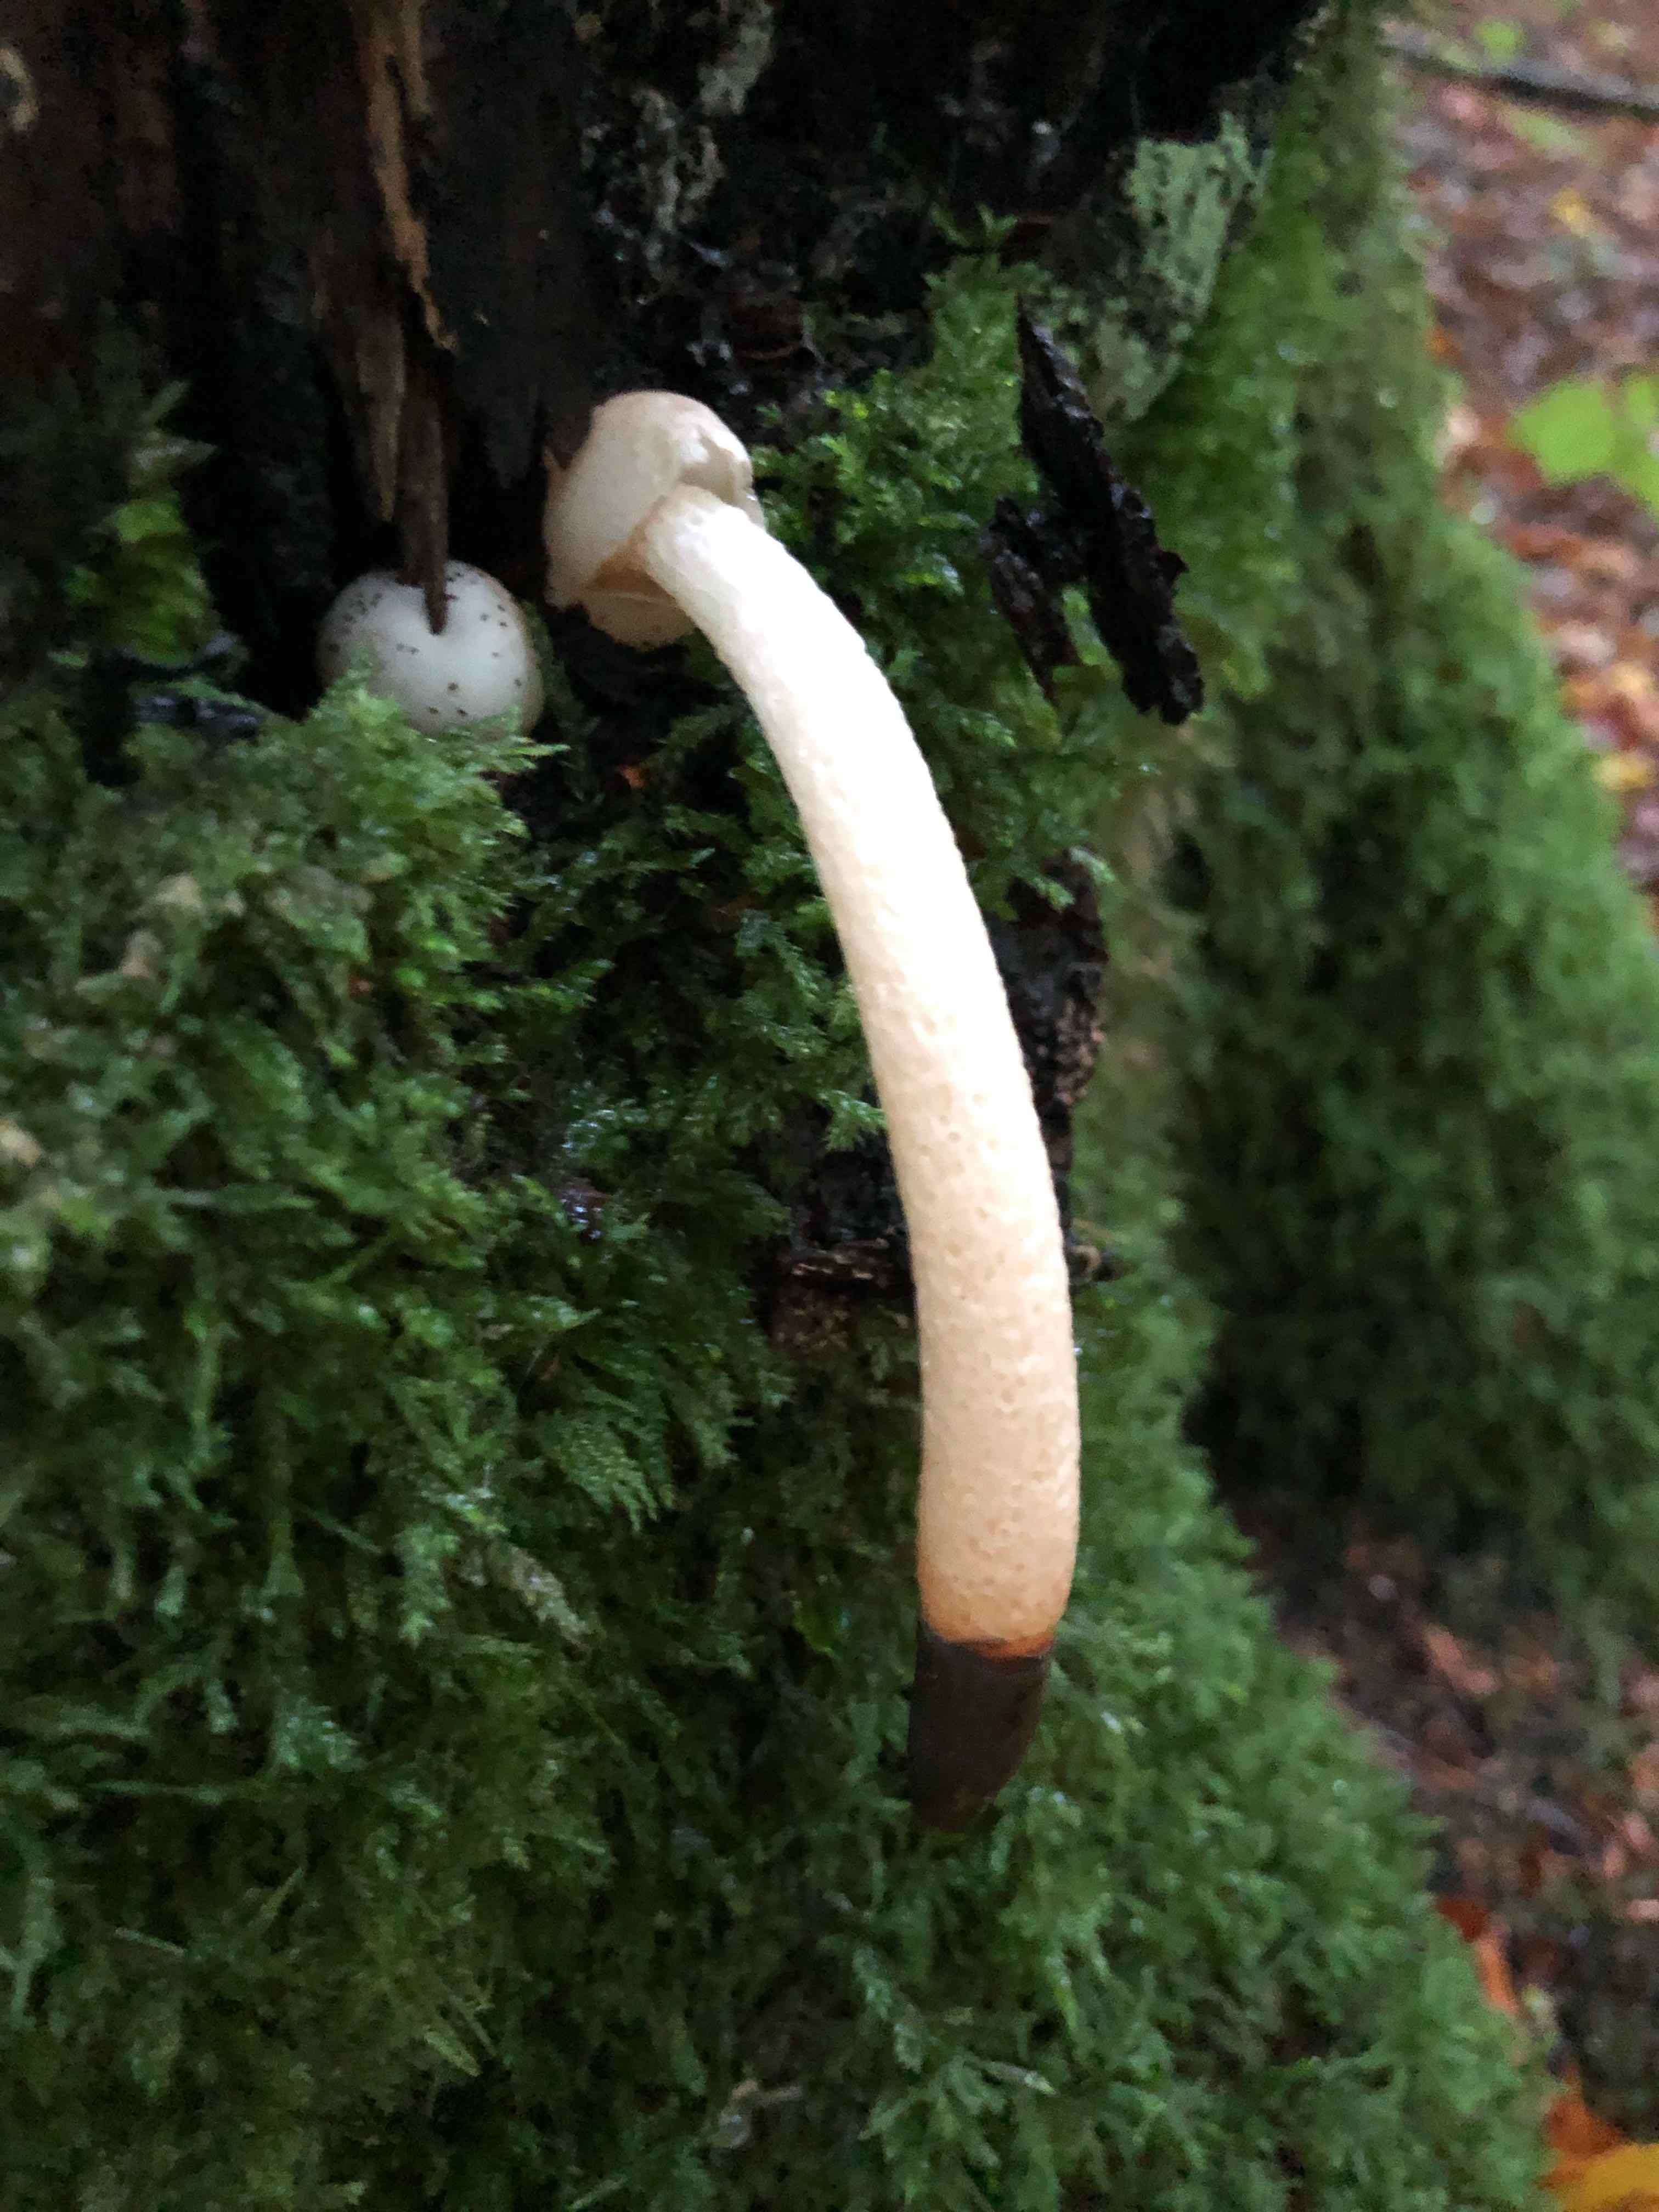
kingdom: Fungi
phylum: Basidiomycota
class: Agaricomycetes
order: Phallales
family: Phallaceae
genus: Mutinus
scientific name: Mutinus caninus
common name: hunde-stinksvamp
